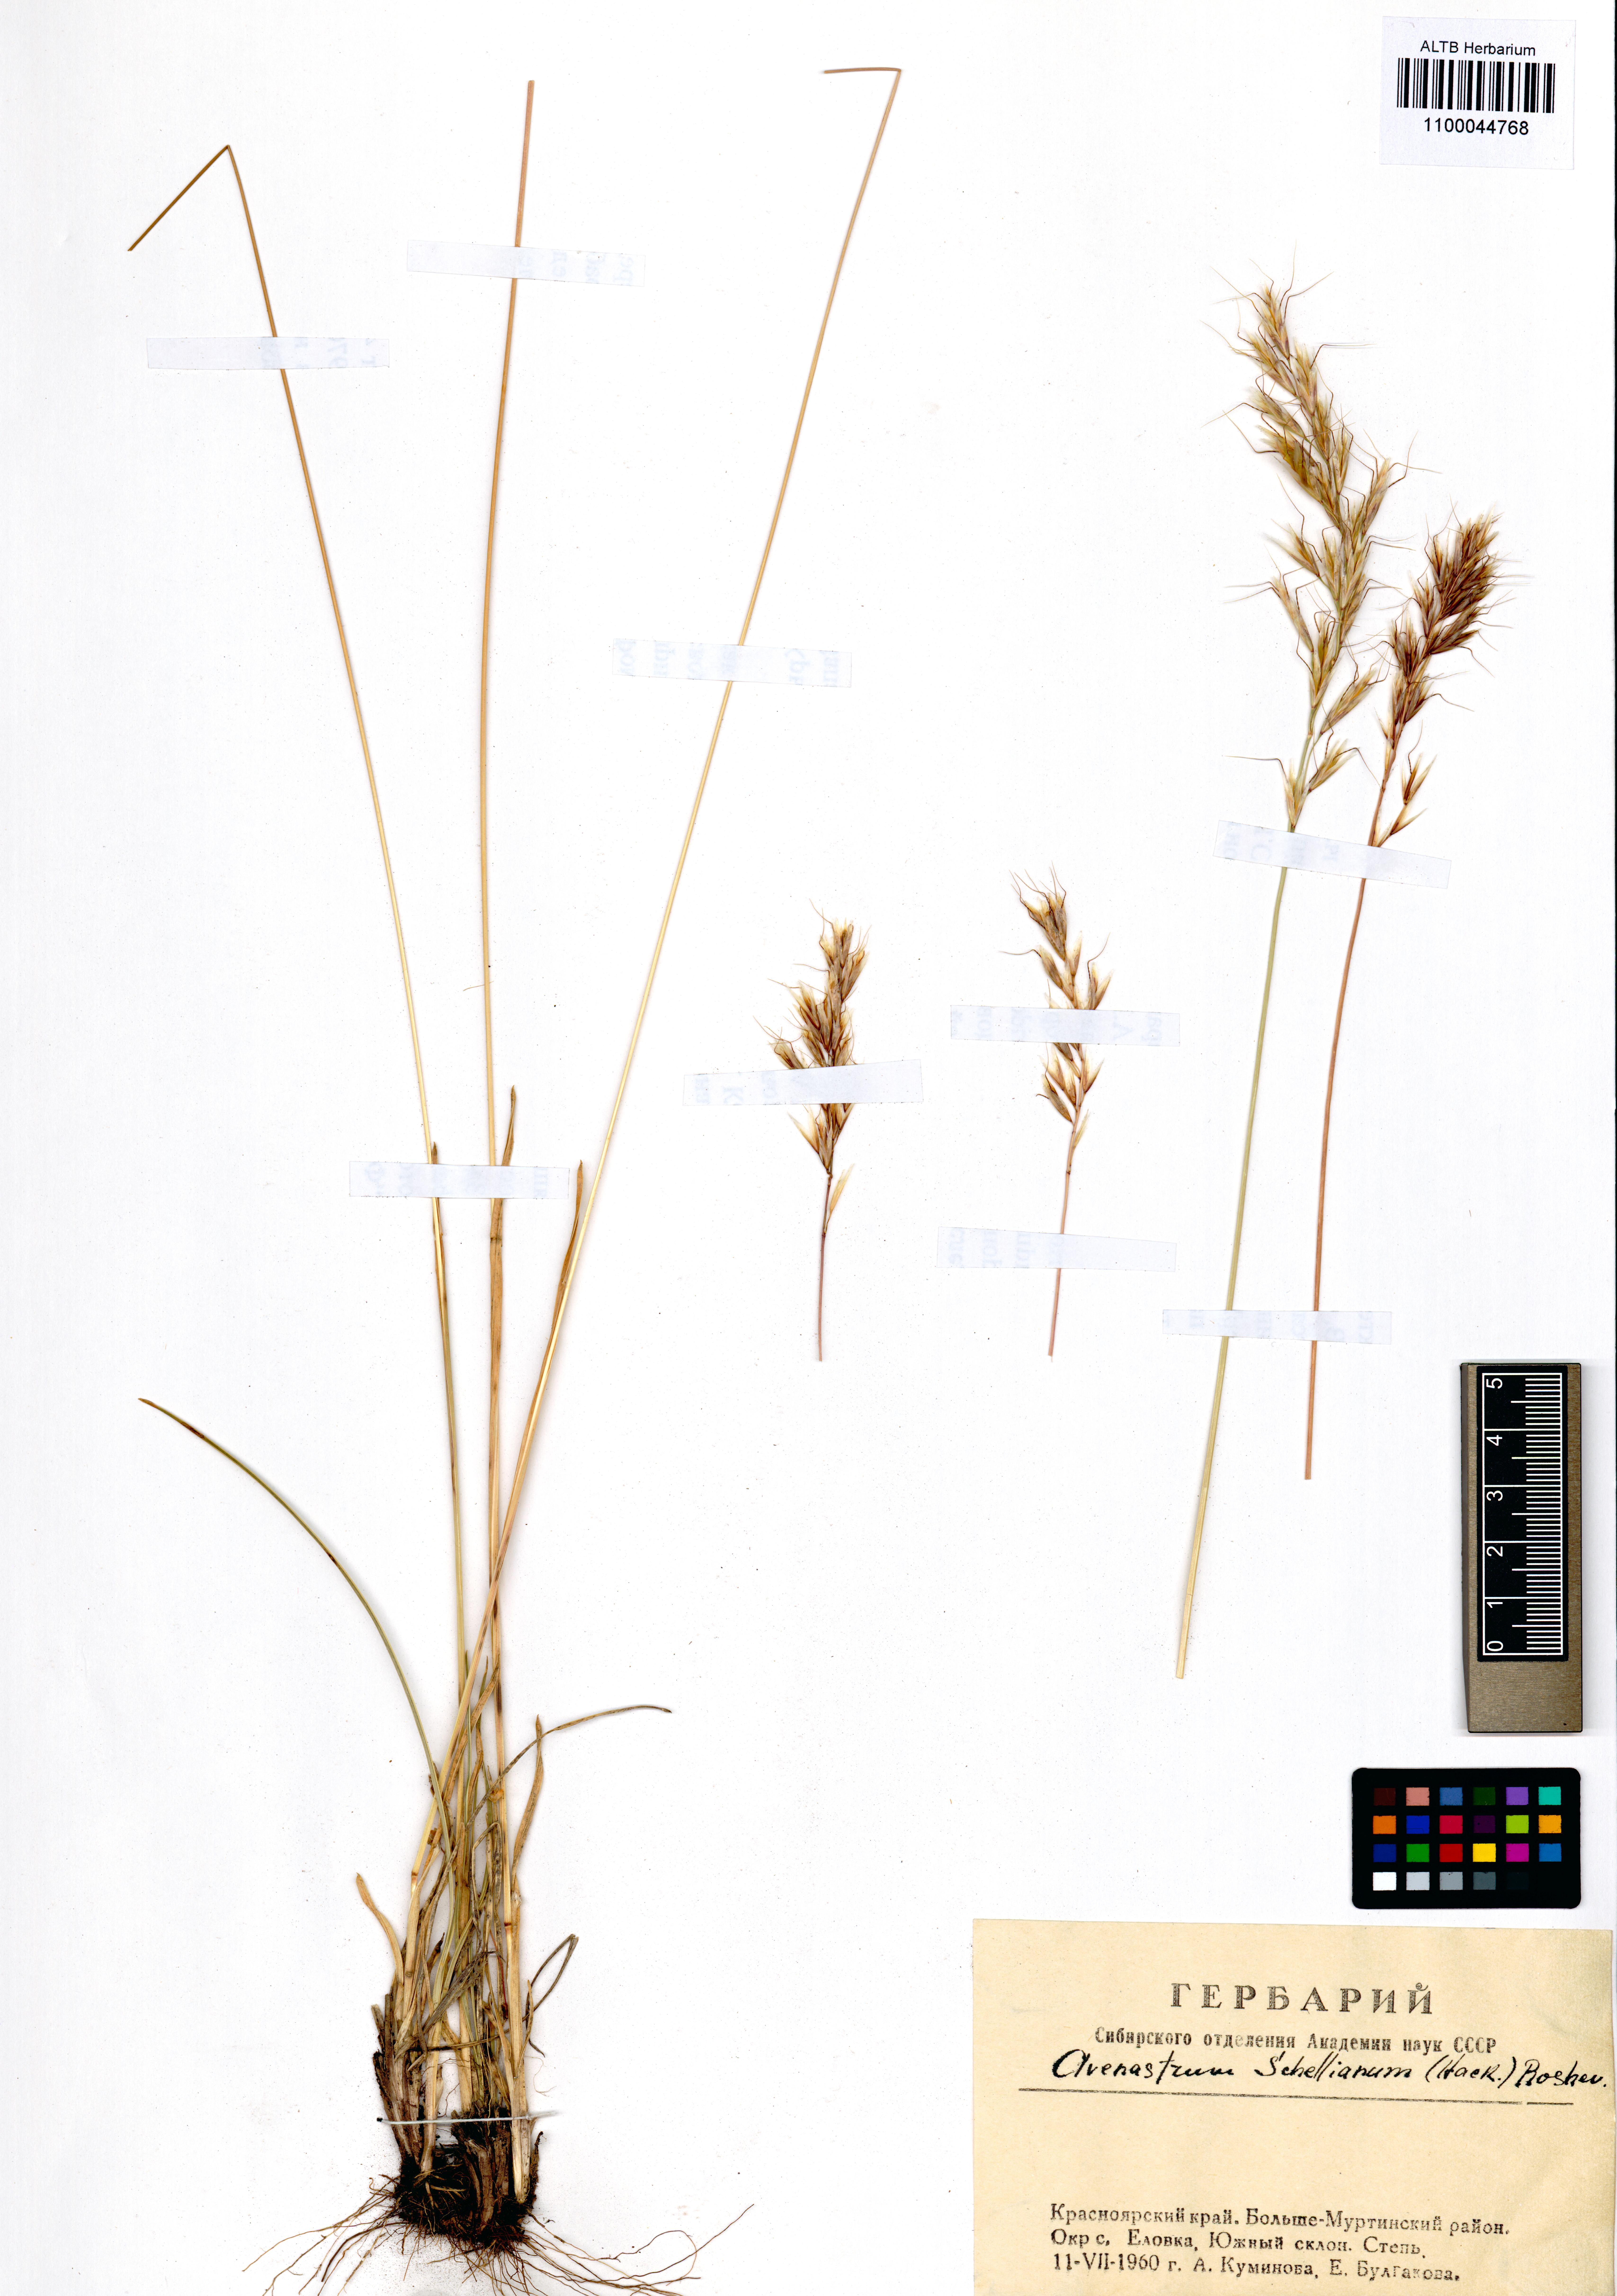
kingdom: Plantae
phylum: Tracheophyta
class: Liliopsida
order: Poales
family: Poaceae
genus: Helictochloa
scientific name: Helictochloa hookeri
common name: Hooker's alpine oatgrass
